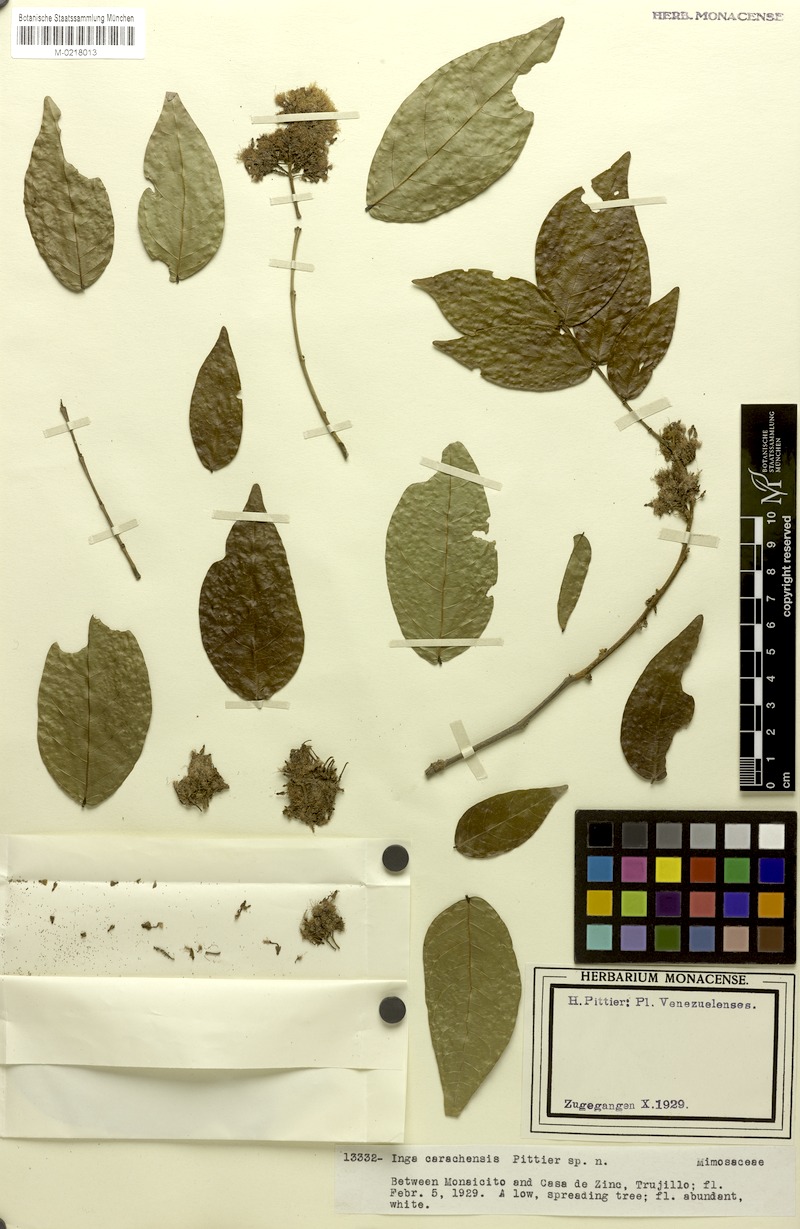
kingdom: Plantae
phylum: Tracheophyta
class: Magnoliopsida
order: Fabales
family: Fabaceae
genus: Inga
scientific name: Inga alba
